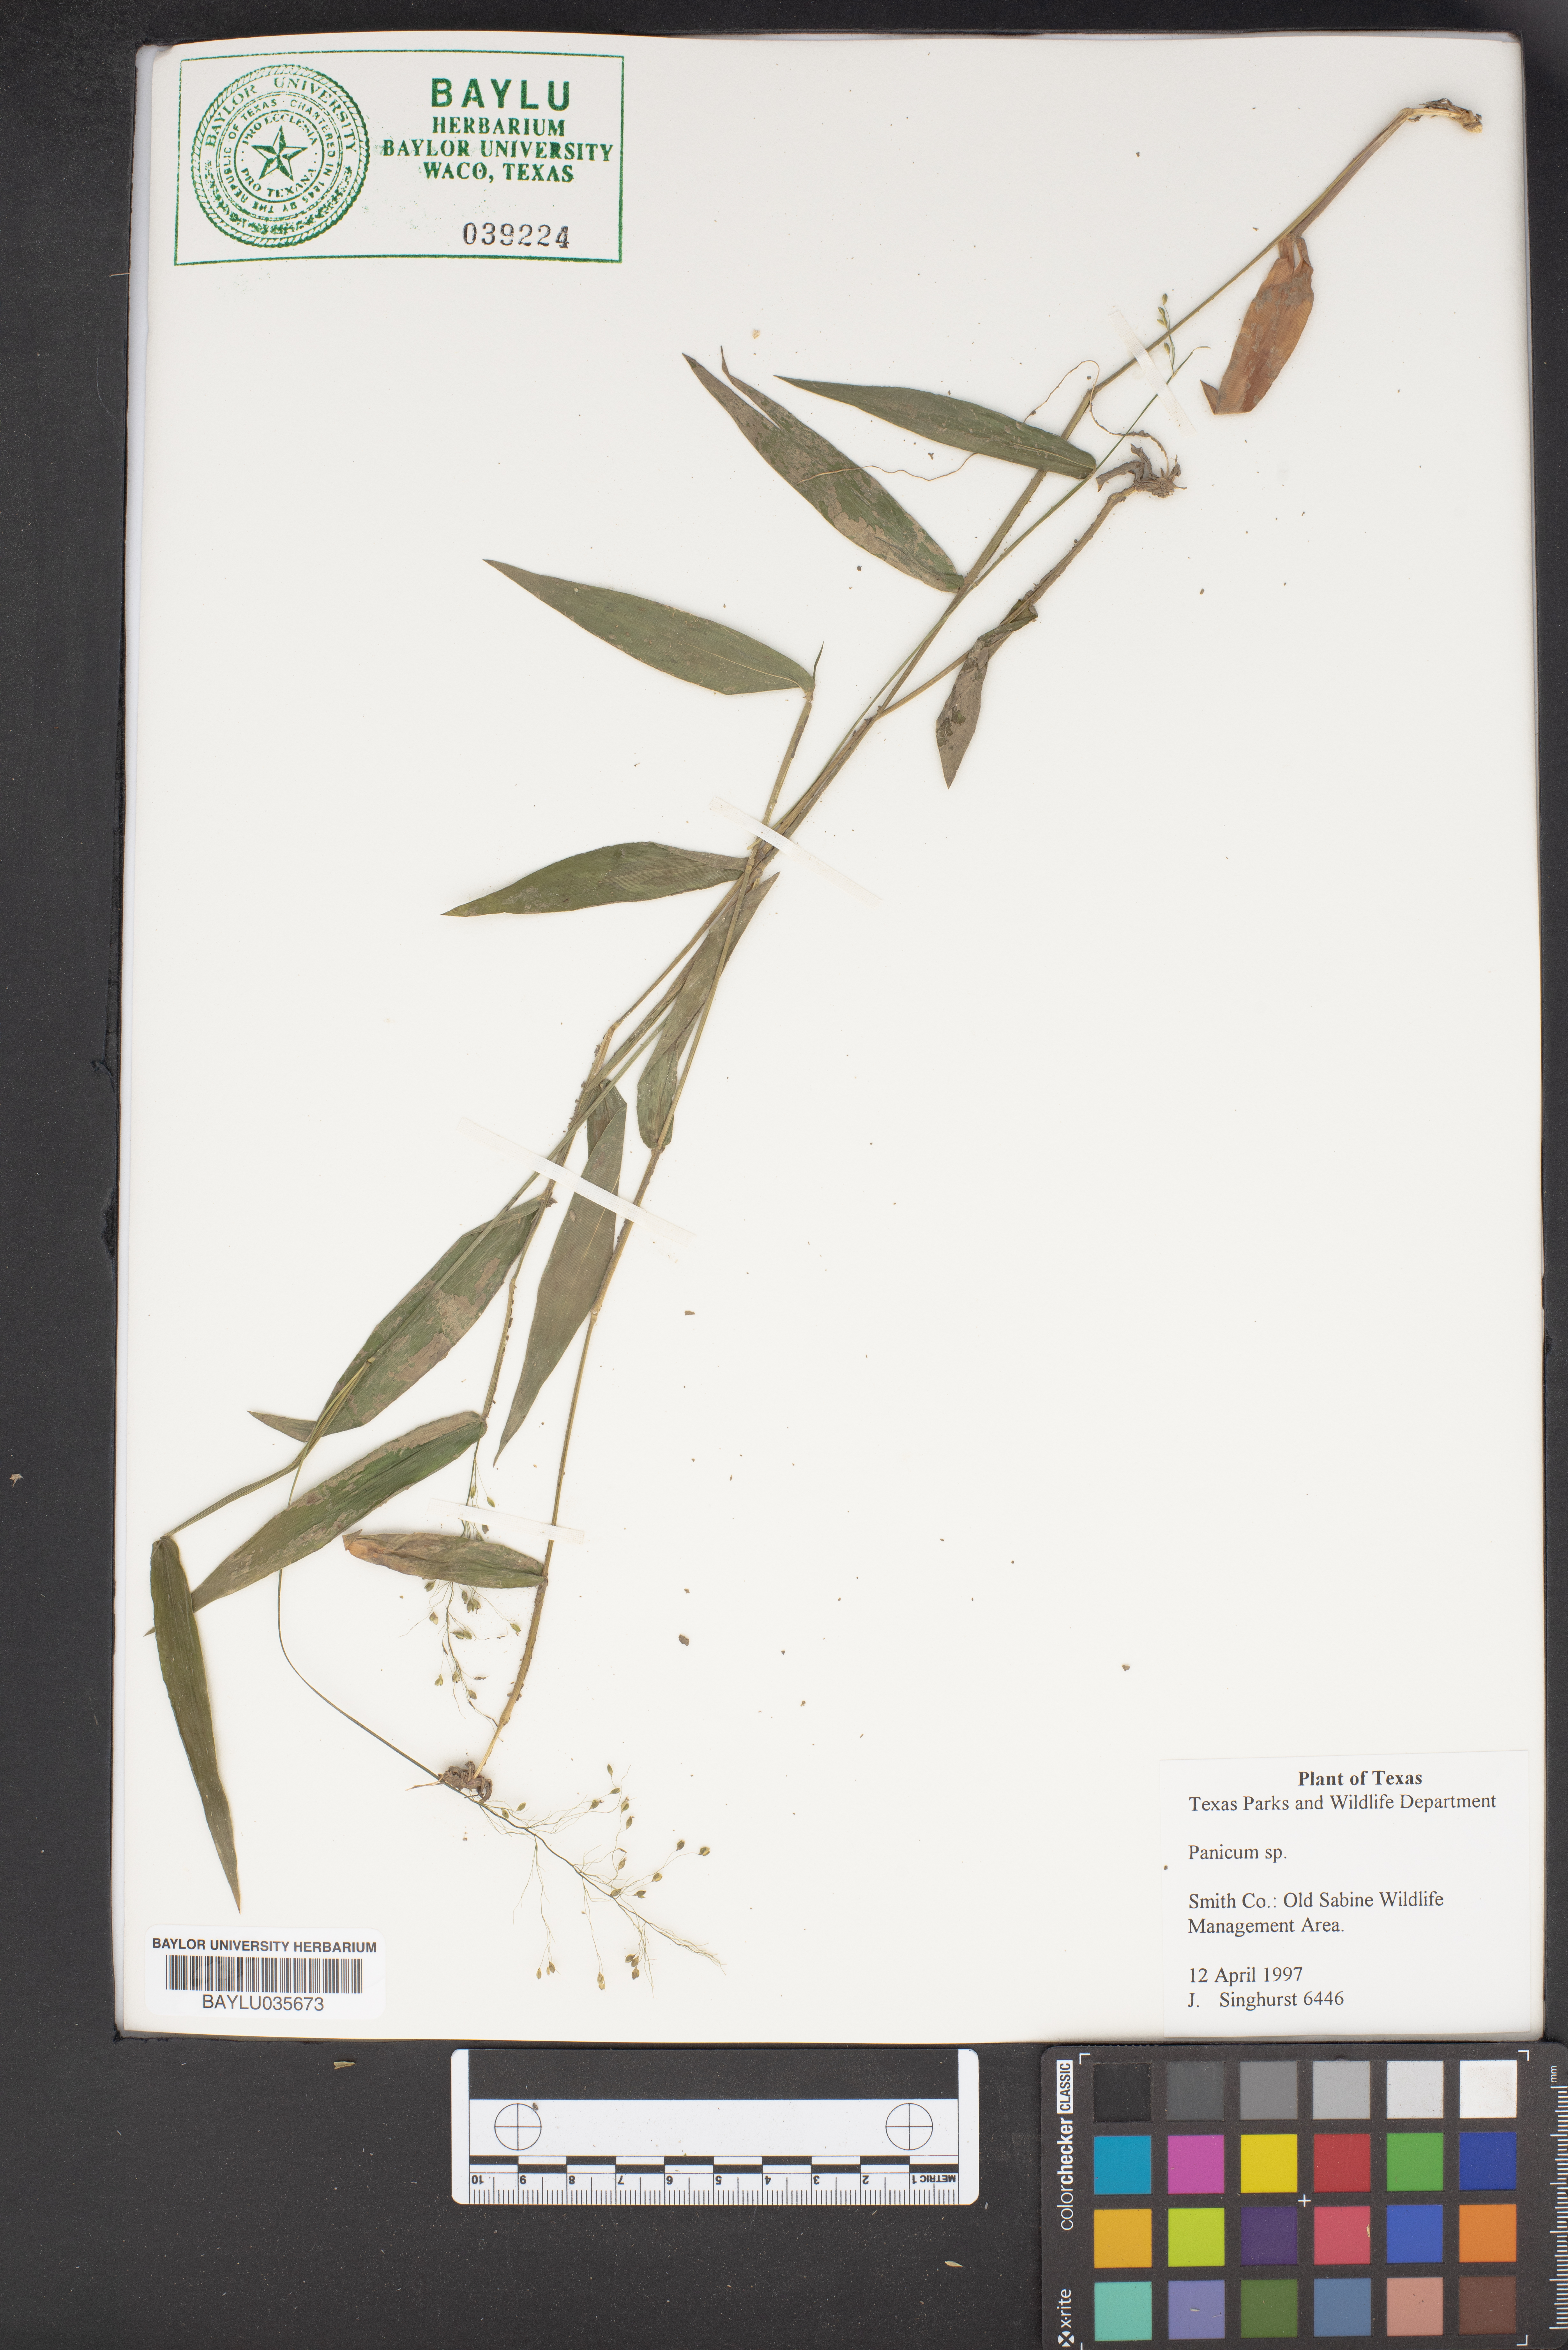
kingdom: Plantae
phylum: Tracheophyta
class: Liliopsida
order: Poales
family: Poaceae
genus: Panicum
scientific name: Panicum
